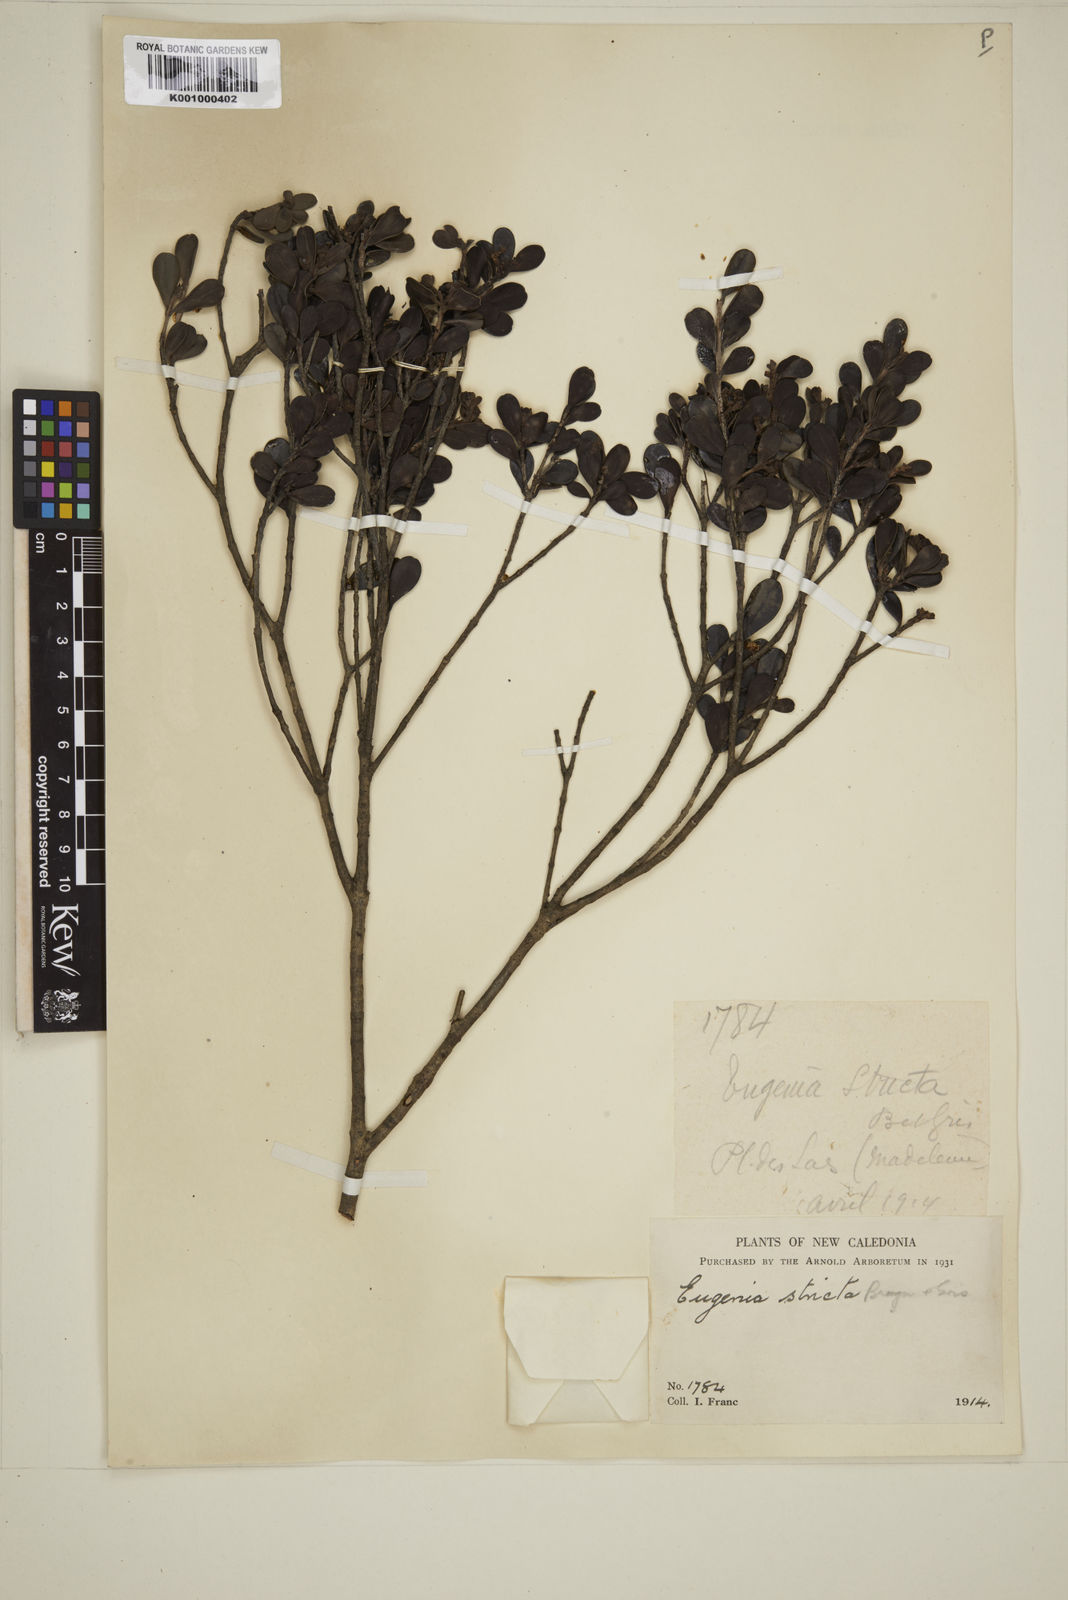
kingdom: Plantae
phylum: Tracheophyta
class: Magnoliopsida
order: Myrtales
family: Myrtaceae
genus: Austromyrtus
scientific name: Austromyrtus stricta
